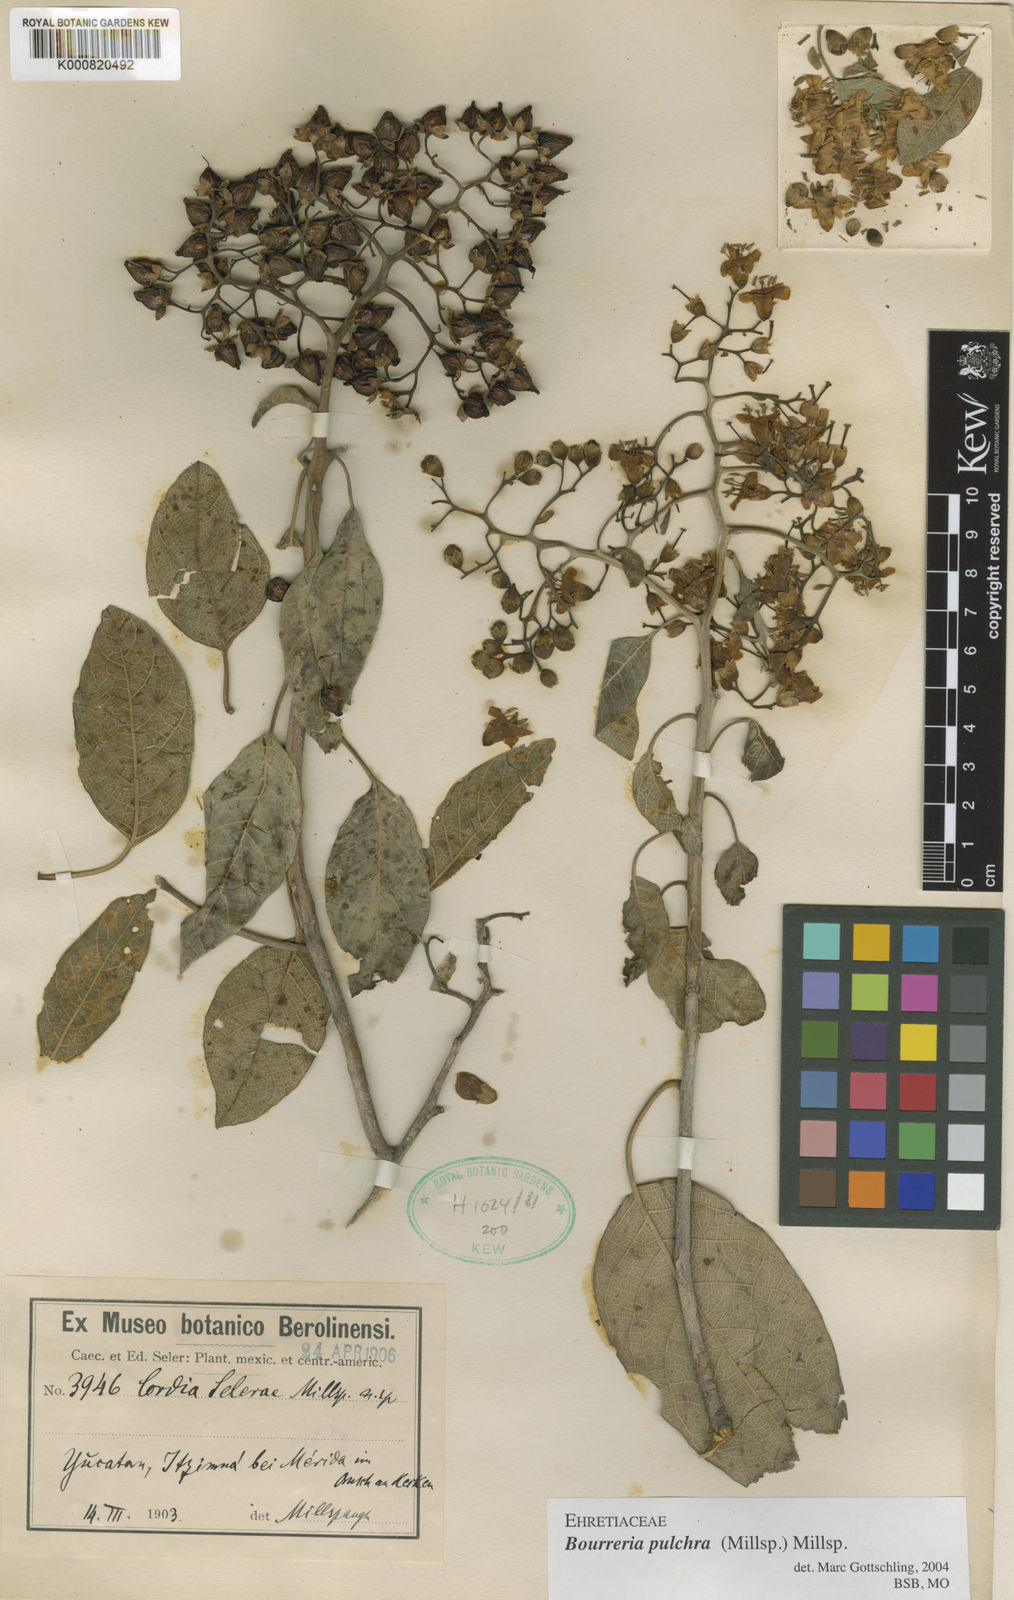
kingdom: Plantae
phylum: Tracheophyta
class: Magnoliopsida
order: Boraginales
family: Ehretiaceae
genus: Bourreria
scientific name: Bourreria
